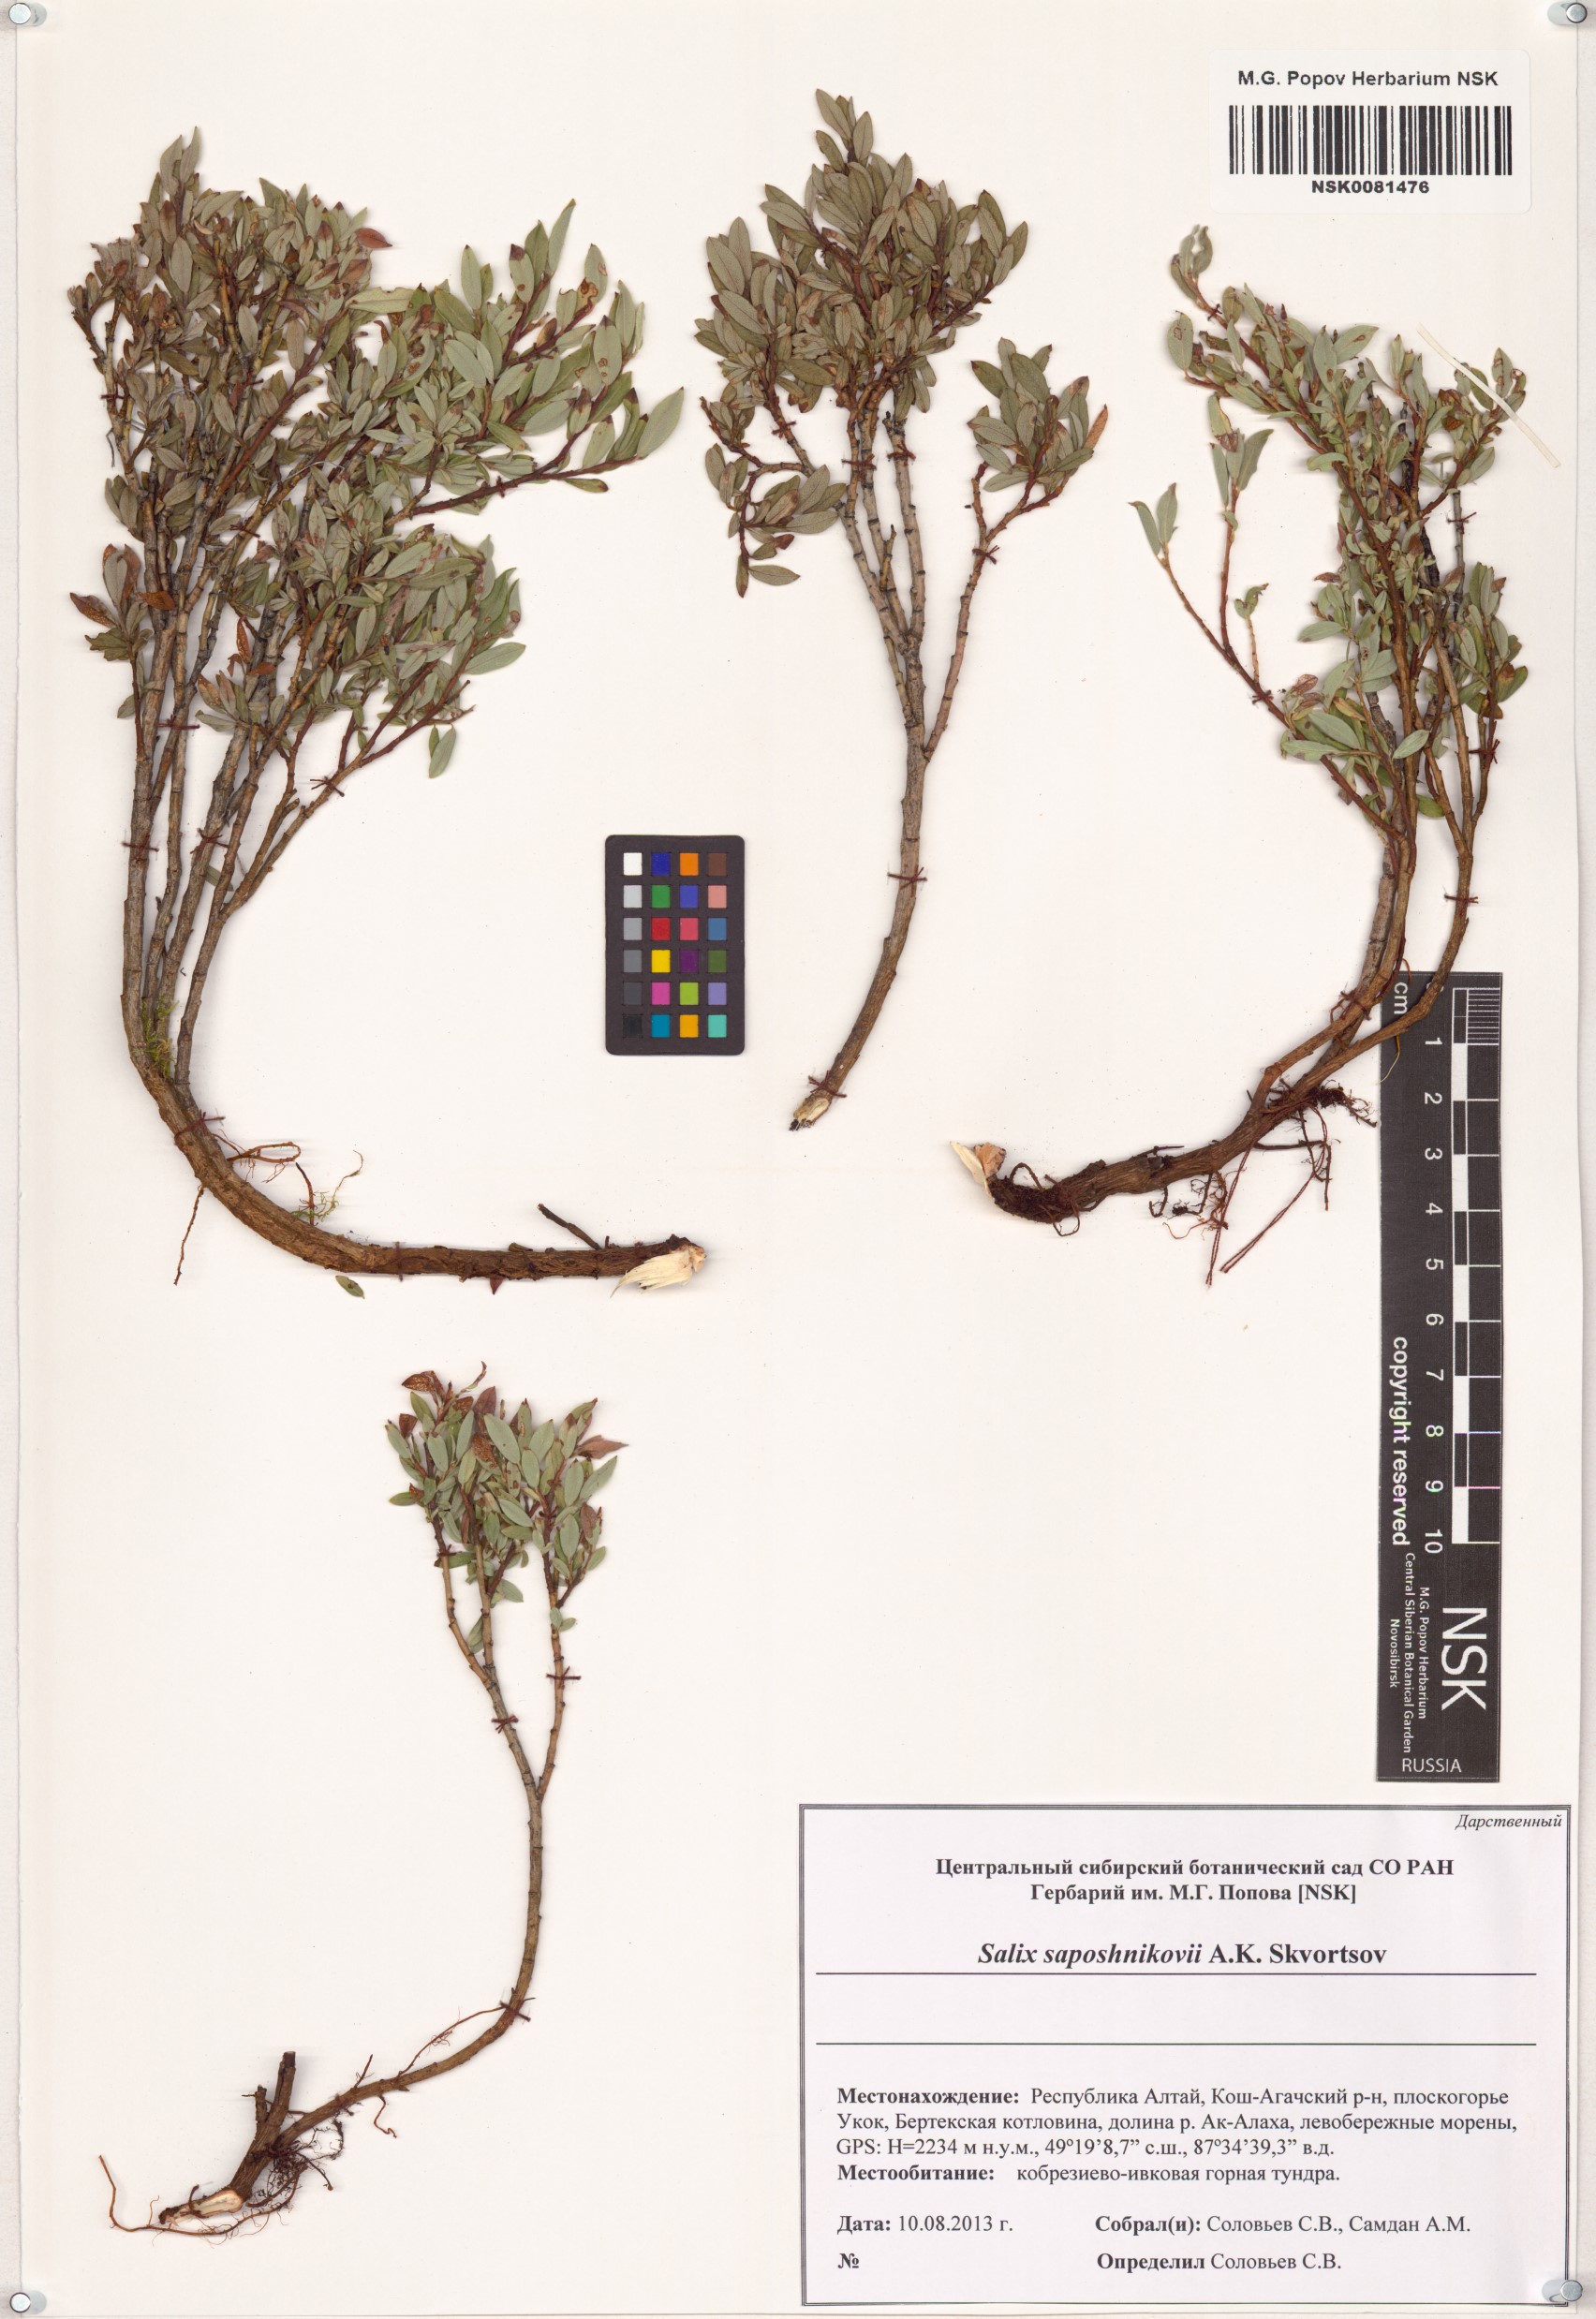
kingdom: Plantae
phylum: Tracheophyta
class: Magnoliopsida
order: Malpighiales
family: Salicaceae
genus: Salix
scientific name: Salix saposhnikovii
